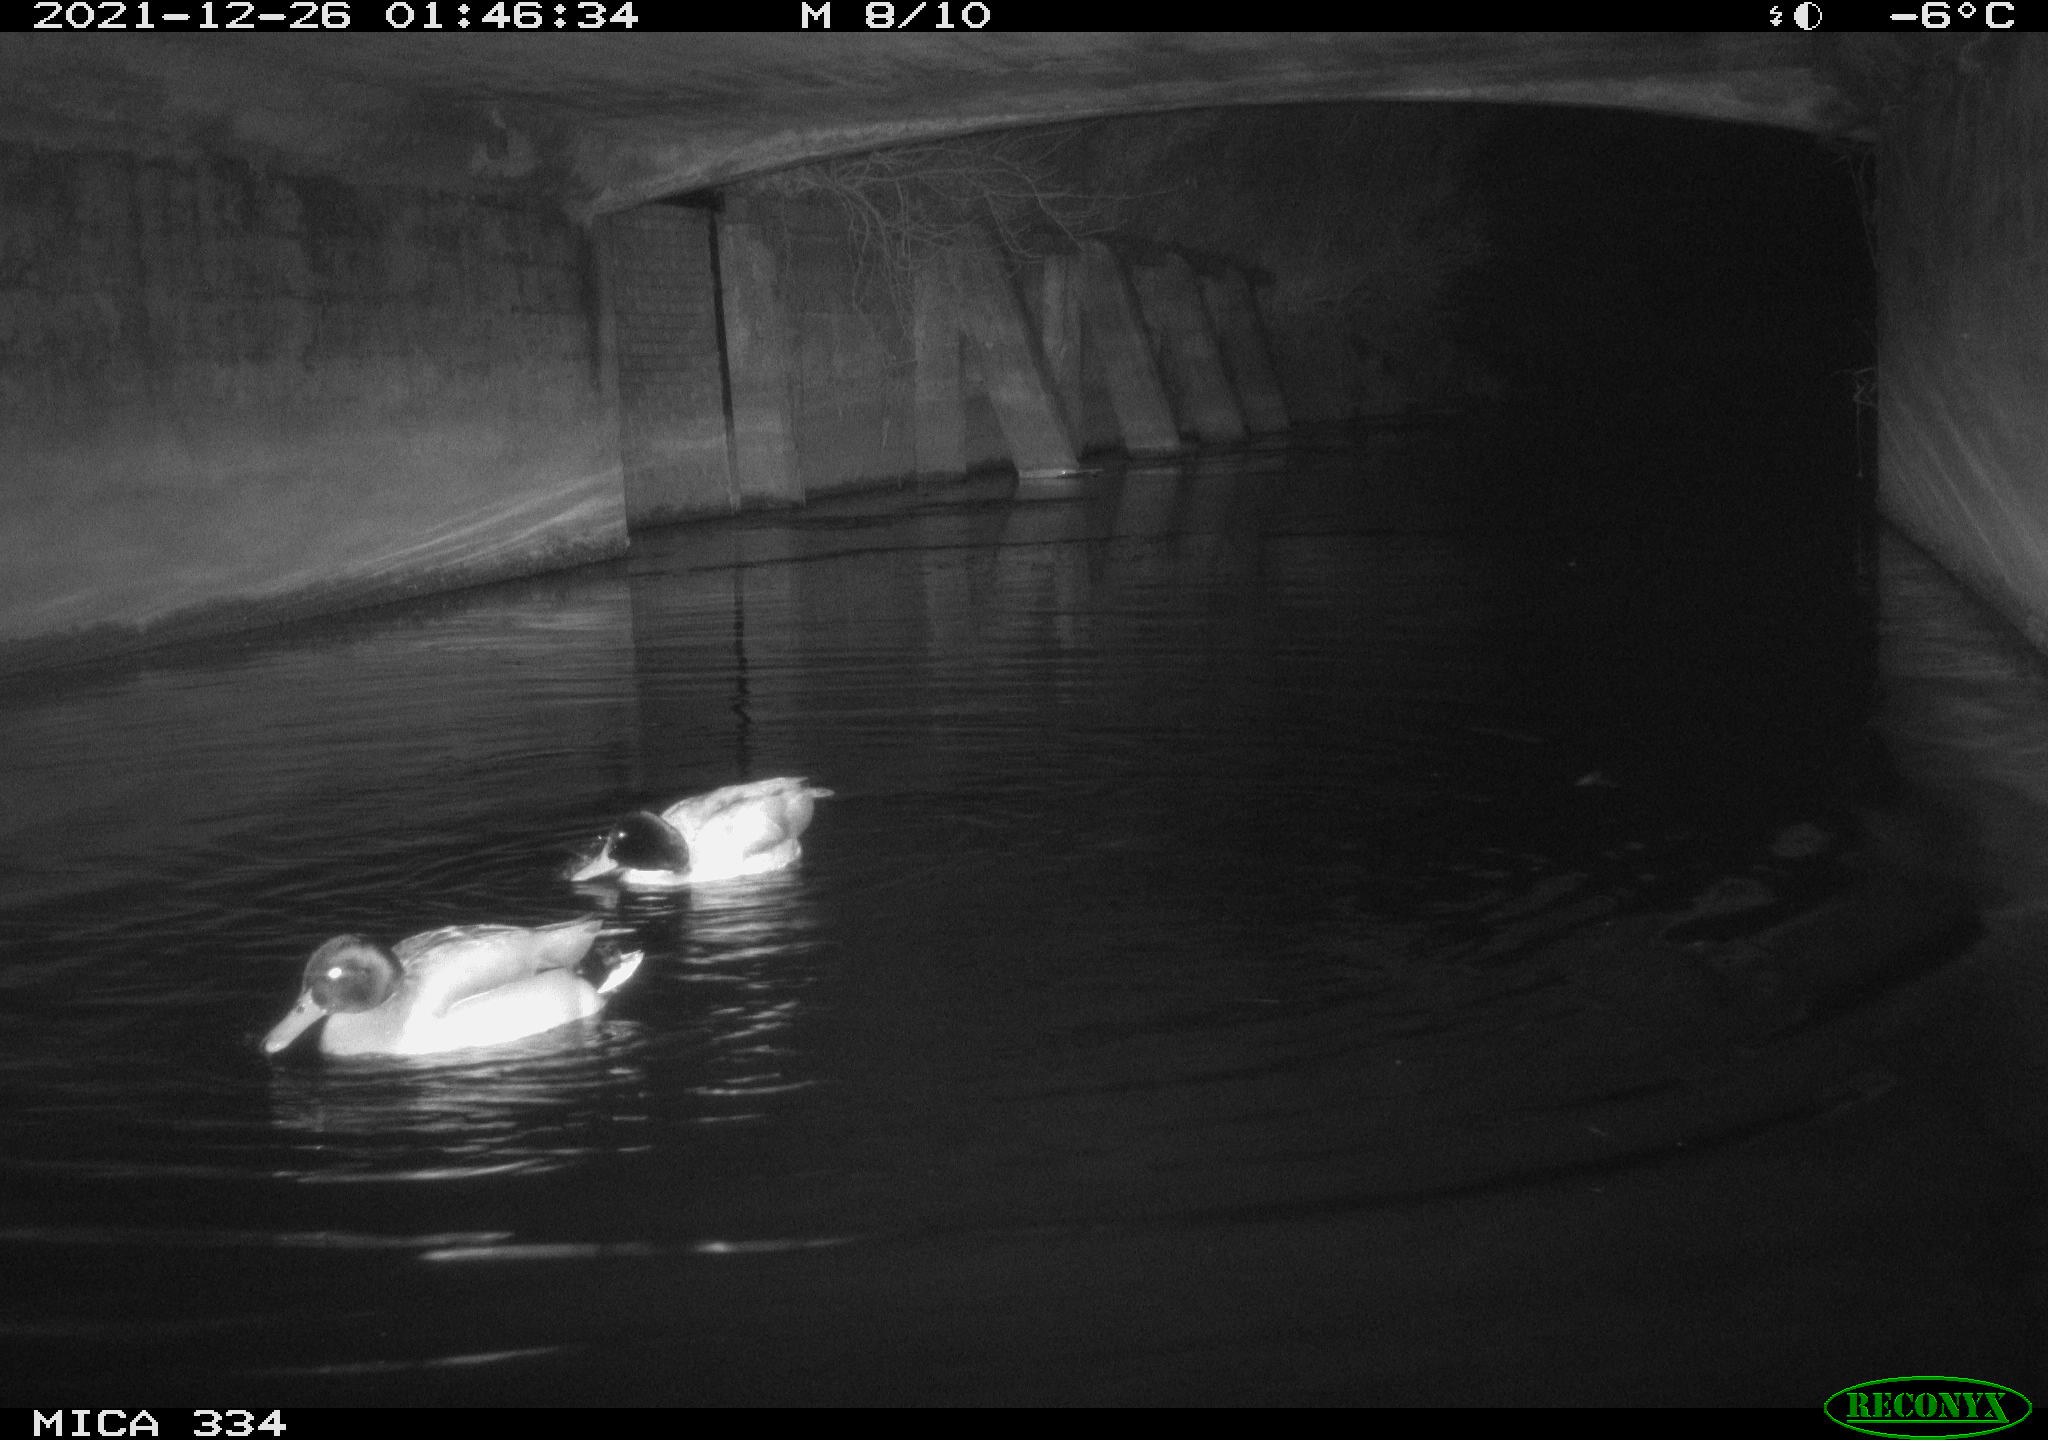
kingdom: Animalia
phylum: Chordata
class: Aves
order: Anseriformes
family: Anatidae
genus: Anas
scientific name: Anas platyrhynchos
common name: Mallard
